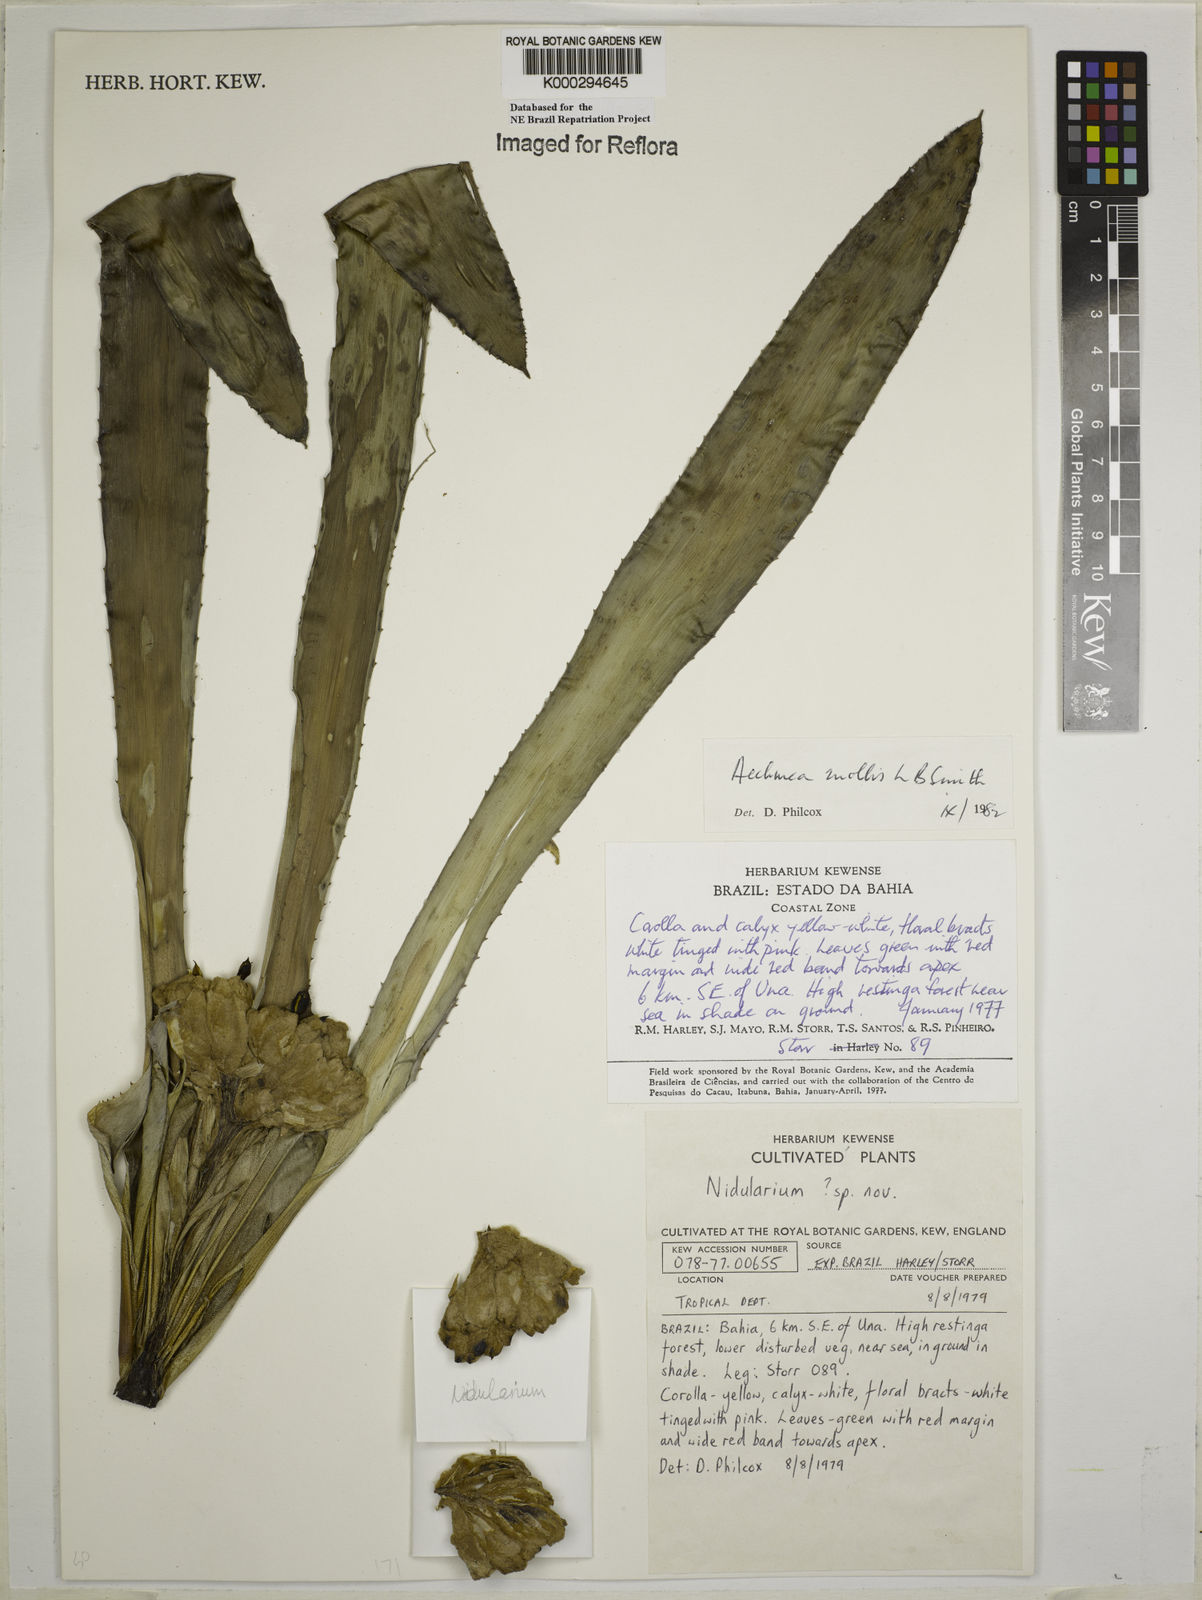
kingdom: Plantae
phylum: Tracheophyta
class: Liliopsida
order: Poales
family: Bromeliaceae
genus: Aechmea
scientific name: Aechmea mollis
